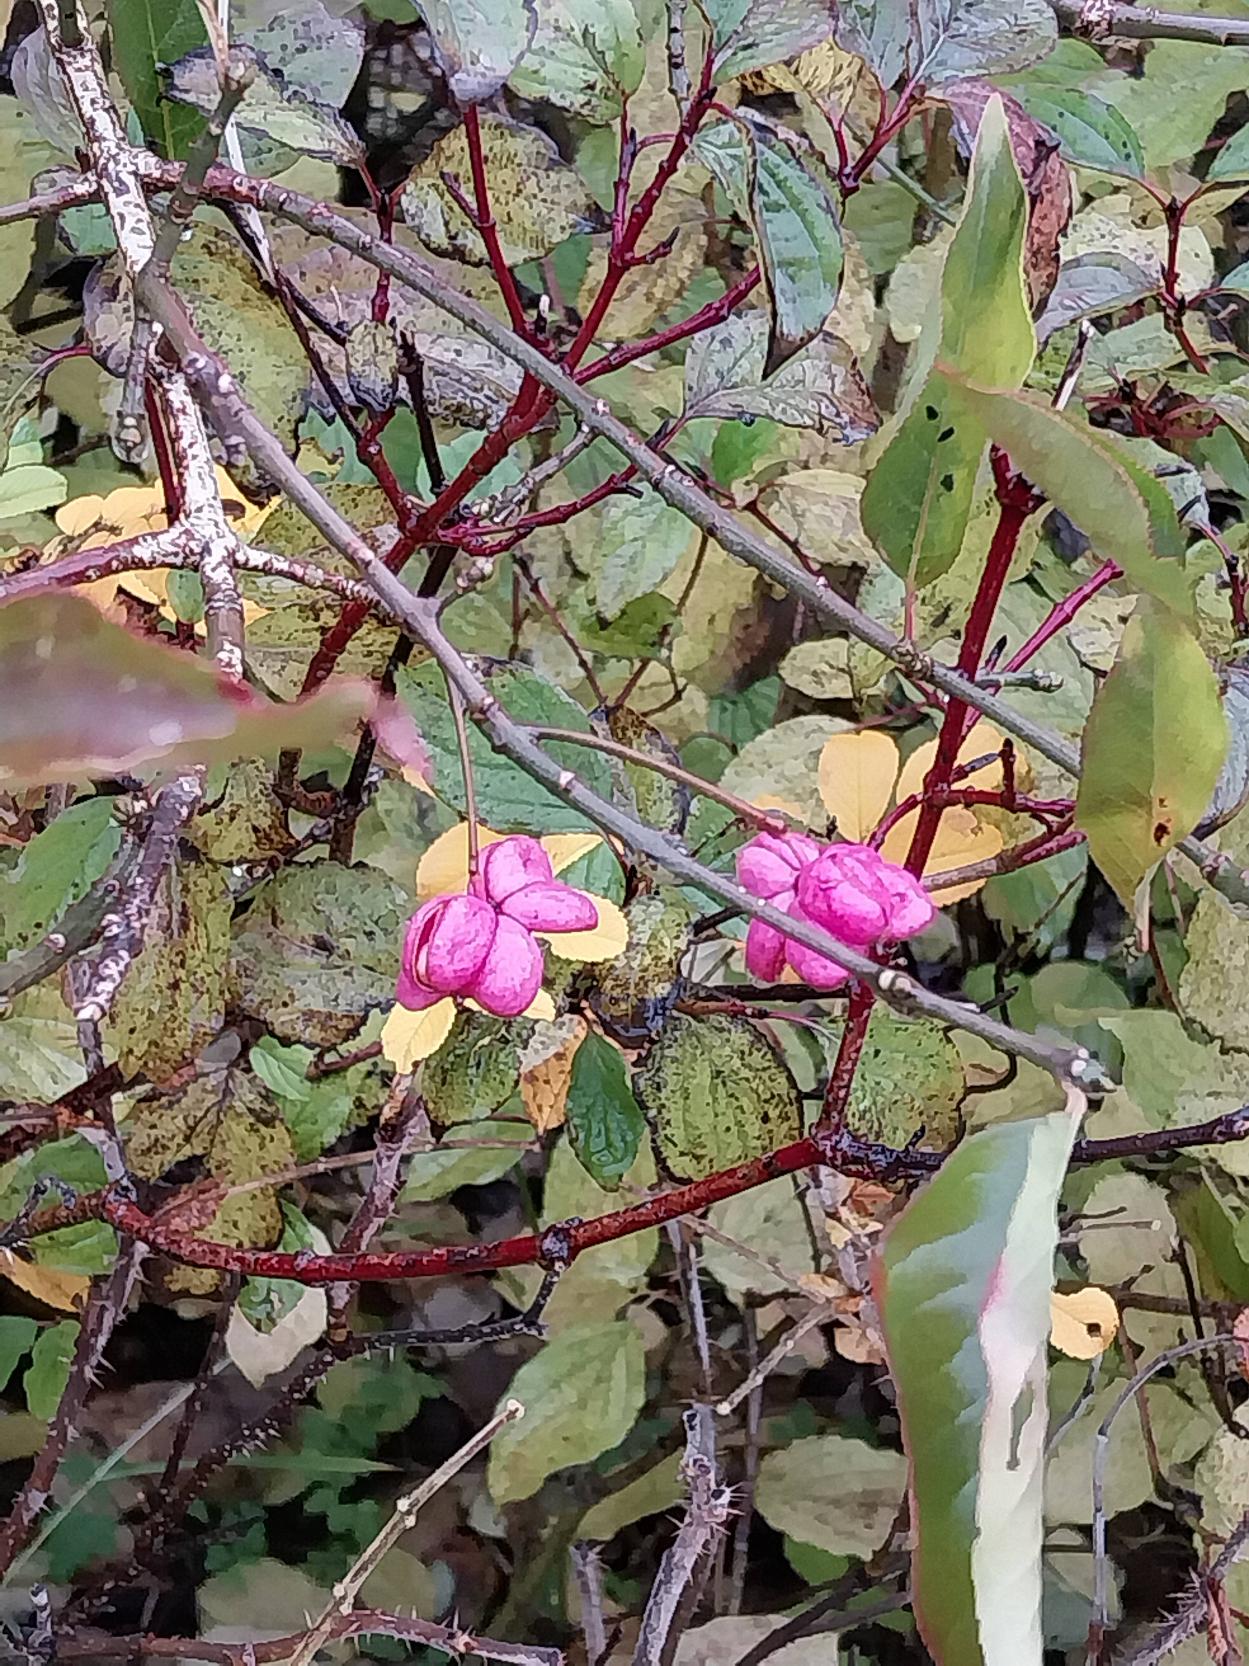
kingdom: Plantae
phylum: Tracheophyta
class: Magnoliopsida
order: Celastrales
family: Celastraceae
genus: Euonymus
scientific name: Euonymus europaeus
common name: Benved
